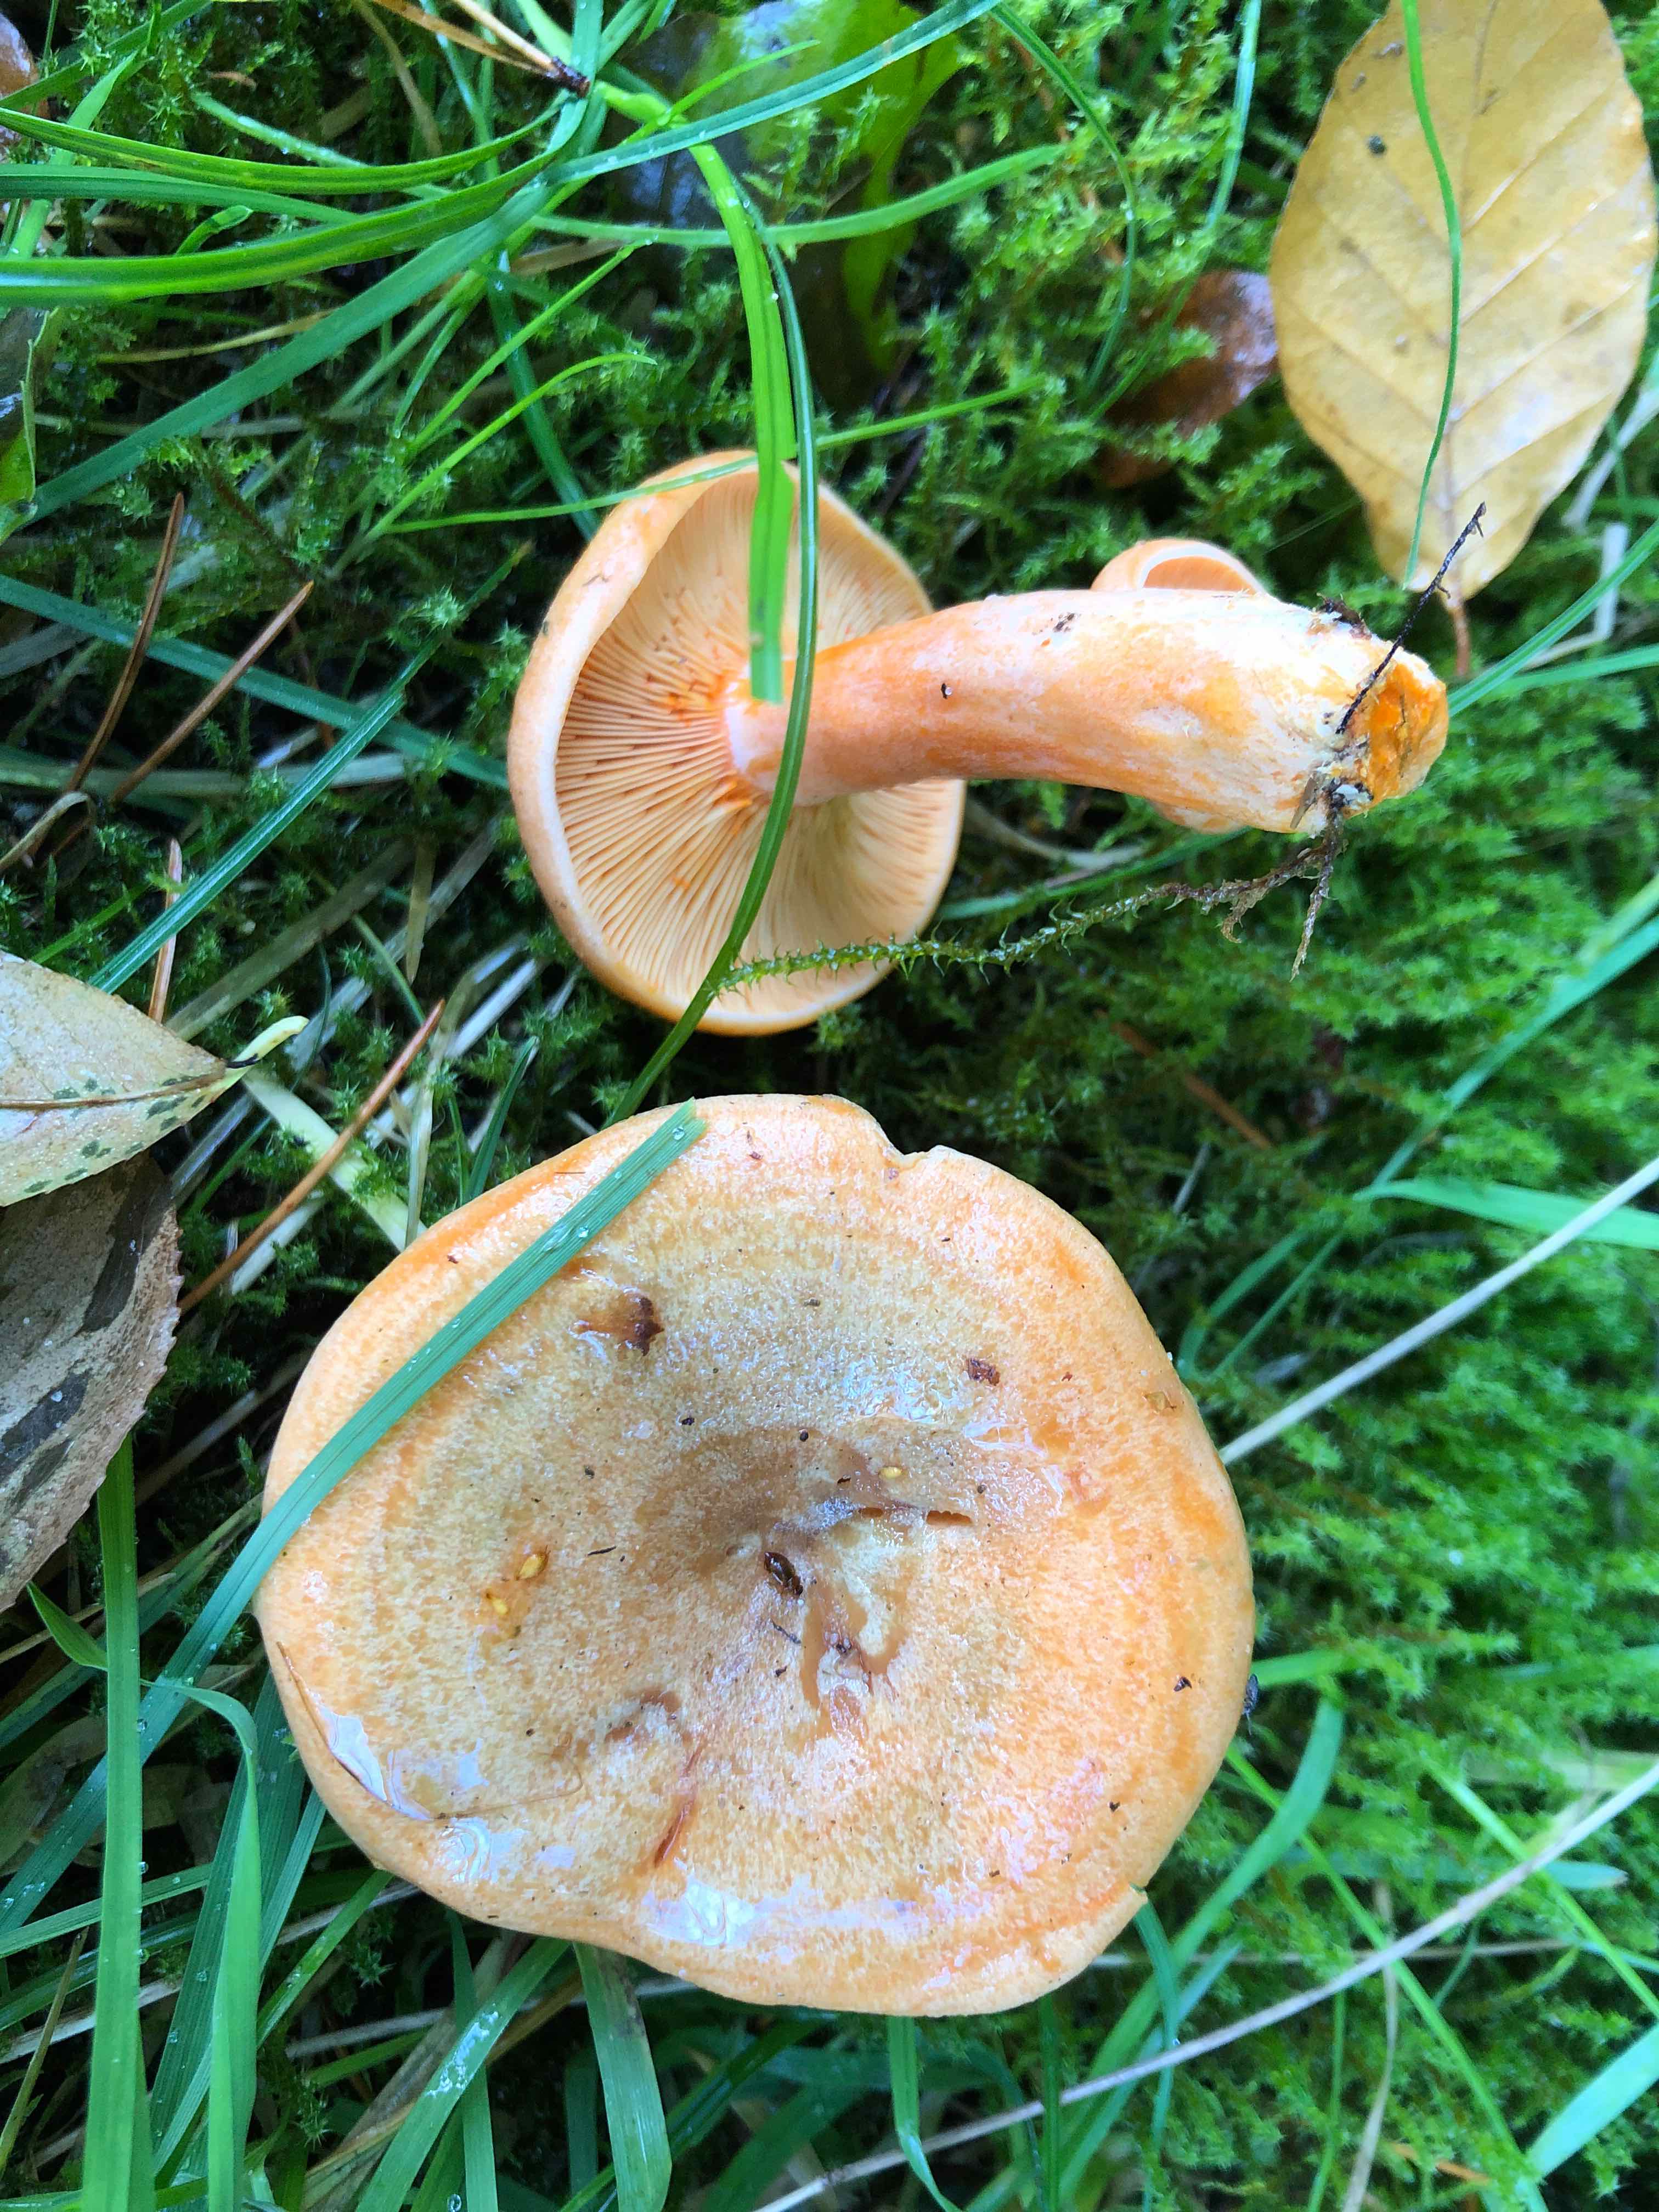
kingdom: Fungi
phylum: Basidiomycota
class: Agaricomycetes
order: Russulales
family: Russulaceae
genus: Lactarius
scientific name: Lactarius deterrimus
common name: gran-mælkehat
